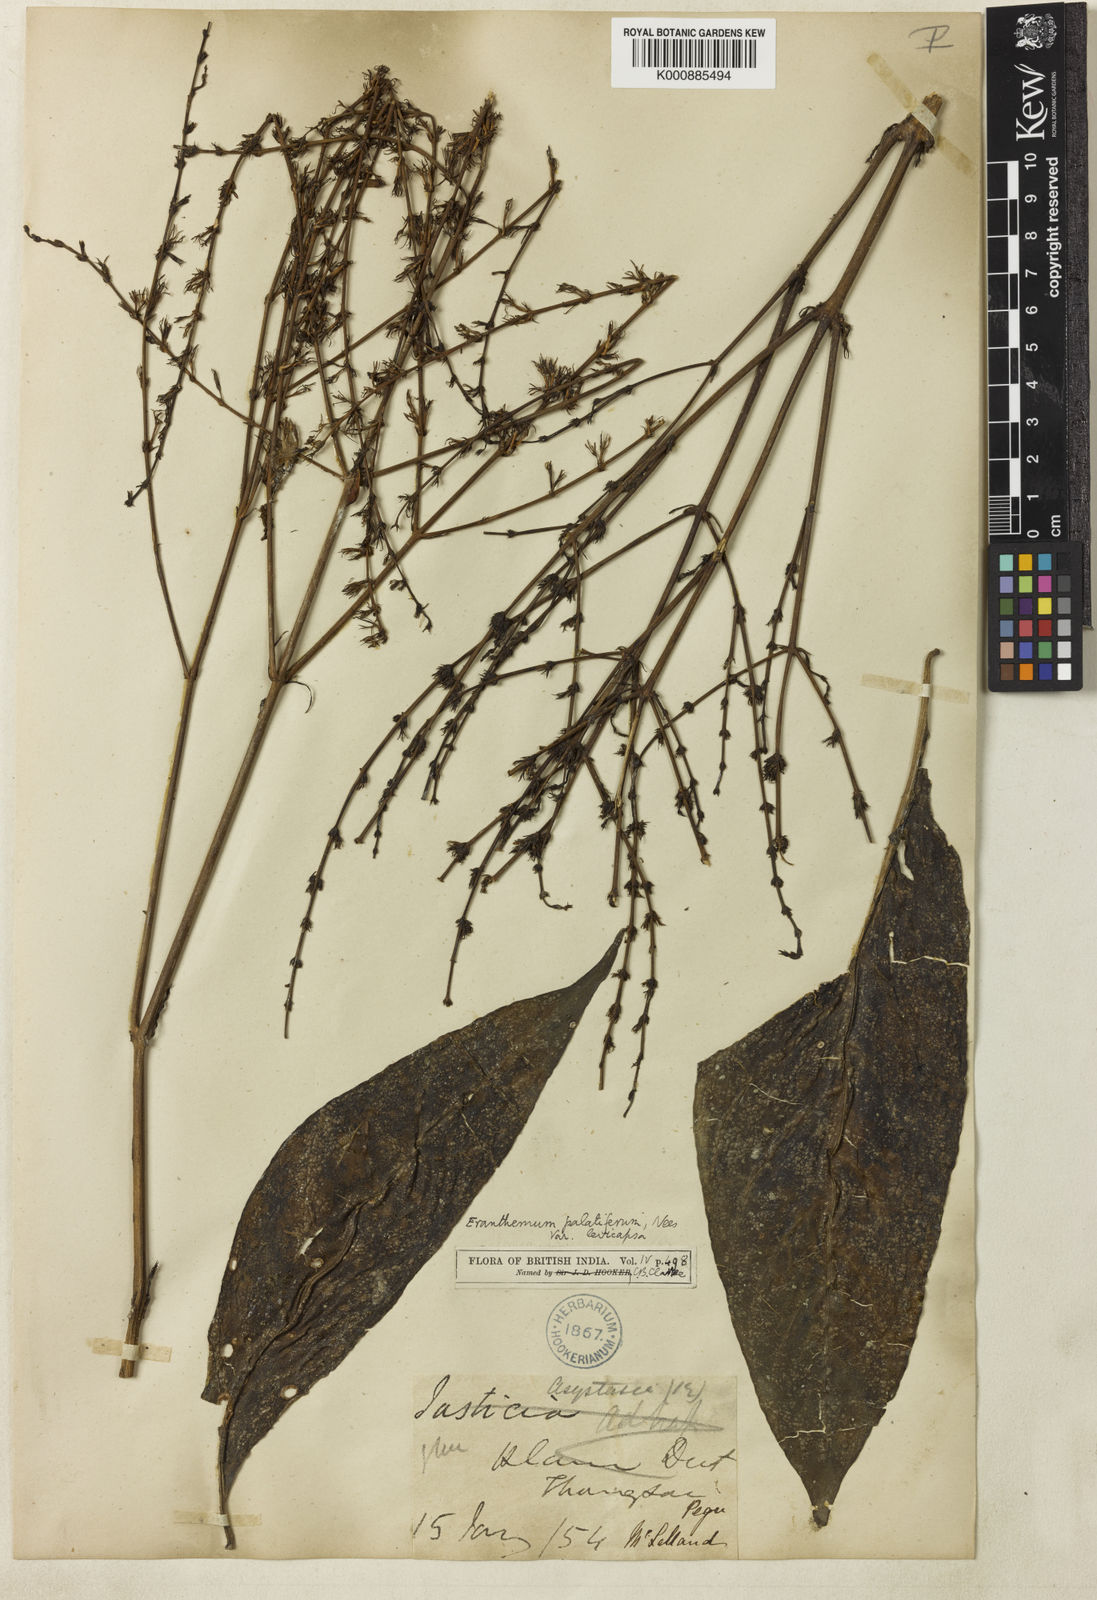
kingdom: Plantae
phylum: Tracheophyta
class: Magnoliopsida
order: Lamiales
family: Acanthaceae
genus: Pseuderanthemum
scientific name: Pseuderanthemum
